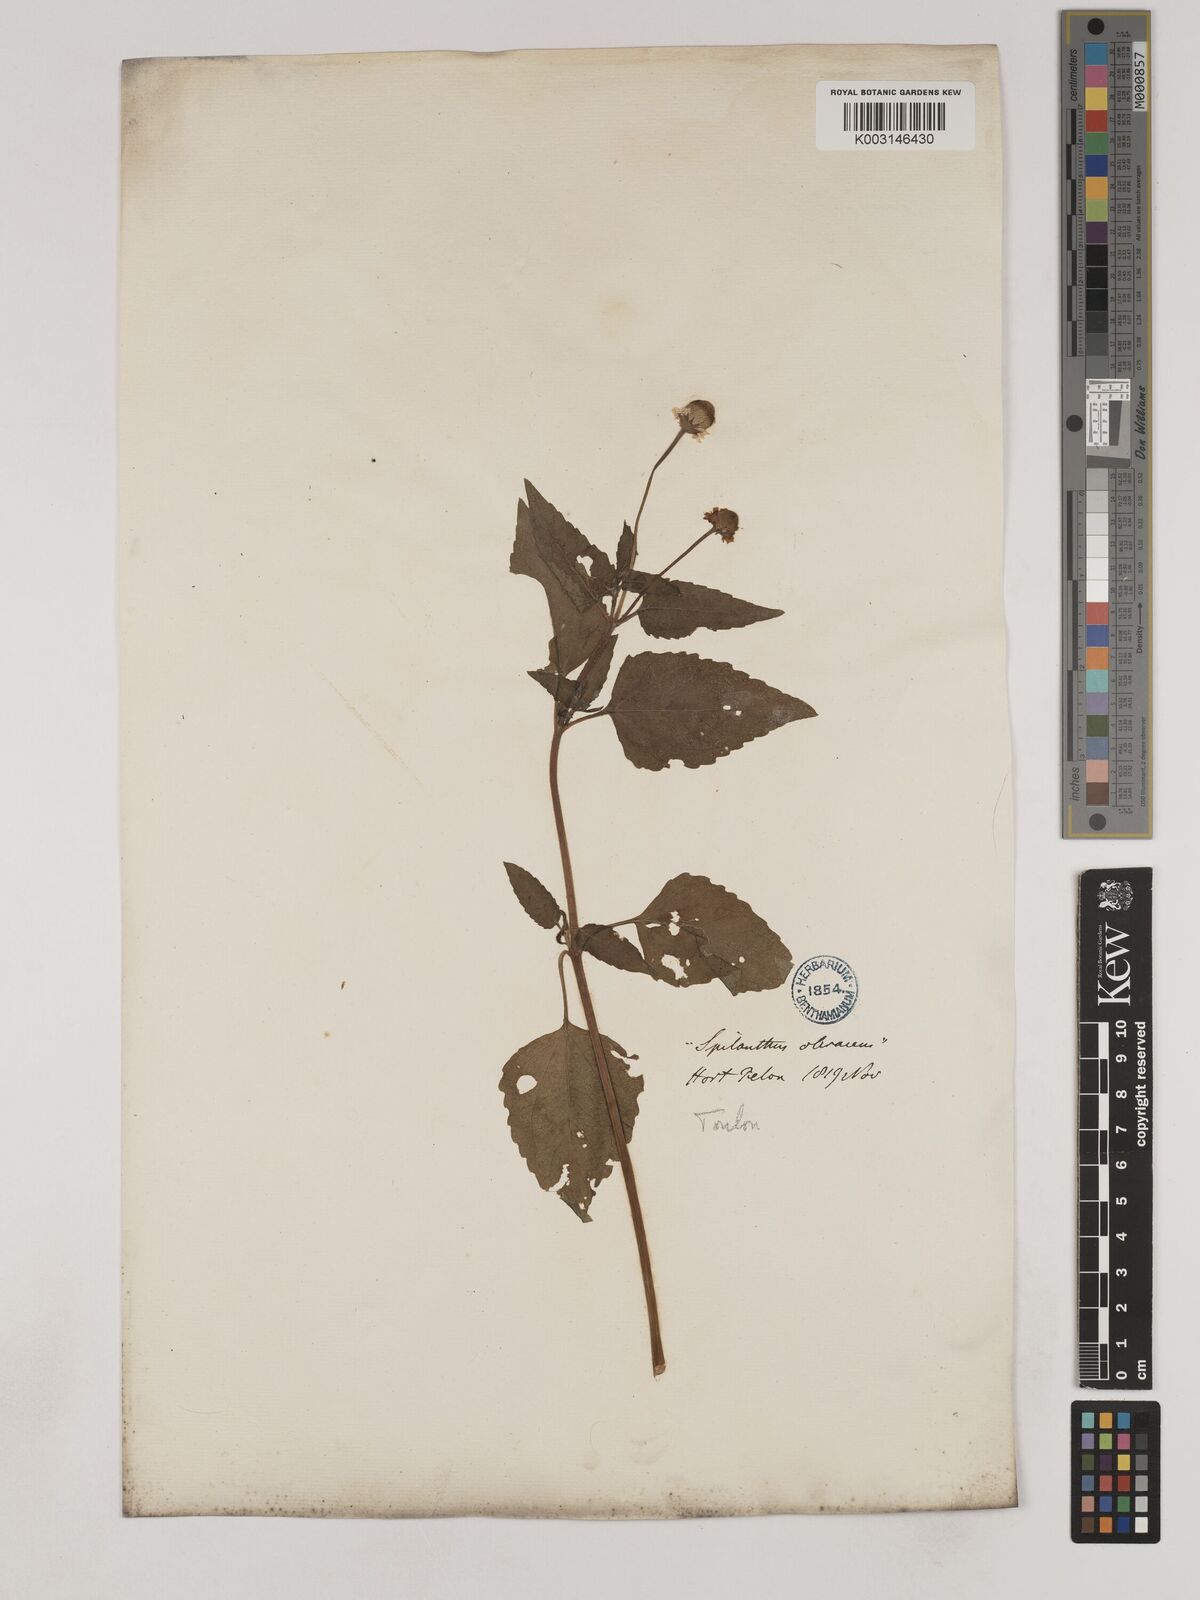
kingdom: Plantae
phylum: Tracheophyta
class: Magnoliopsida
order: Asterales
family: Asteraceae
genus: Acmella
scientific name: Acmella oleracea
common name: Brazilian cress
